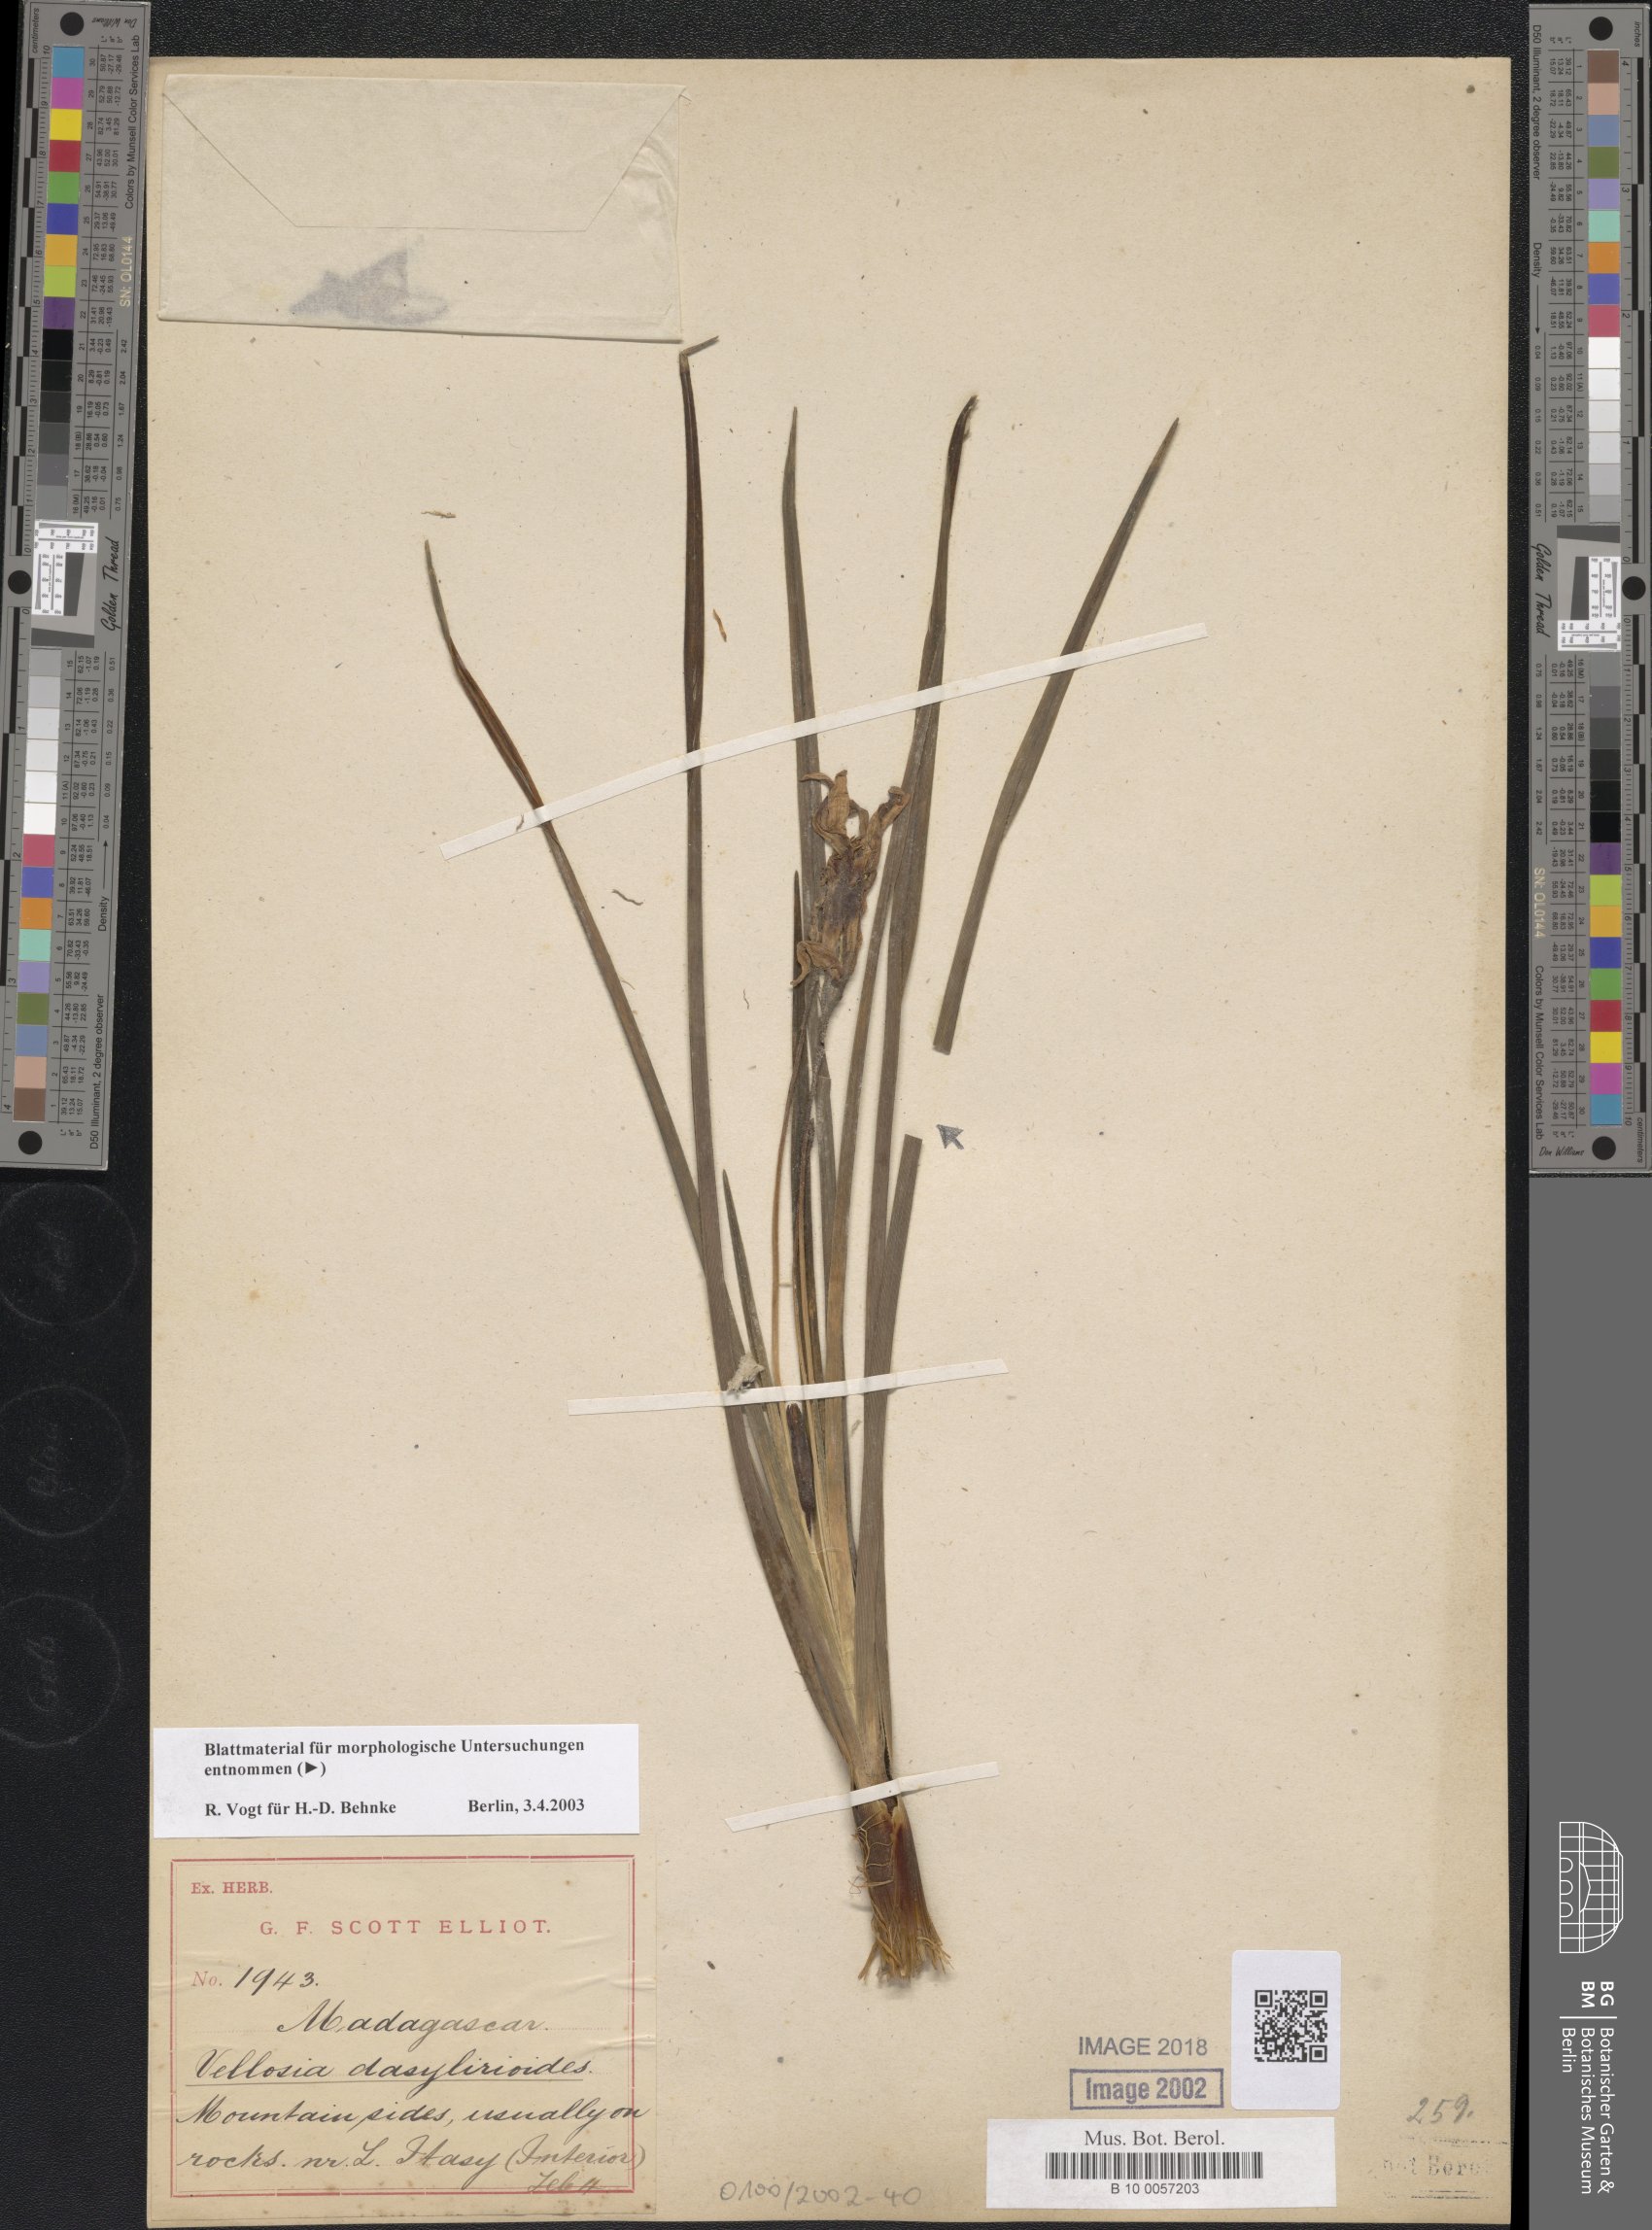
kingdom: Plantae
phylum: Tracheophyta
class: Liliopsida
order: Pandanales
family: Velloziaceae
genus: Xerophyta
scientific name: Xerophyta dasylirioides
